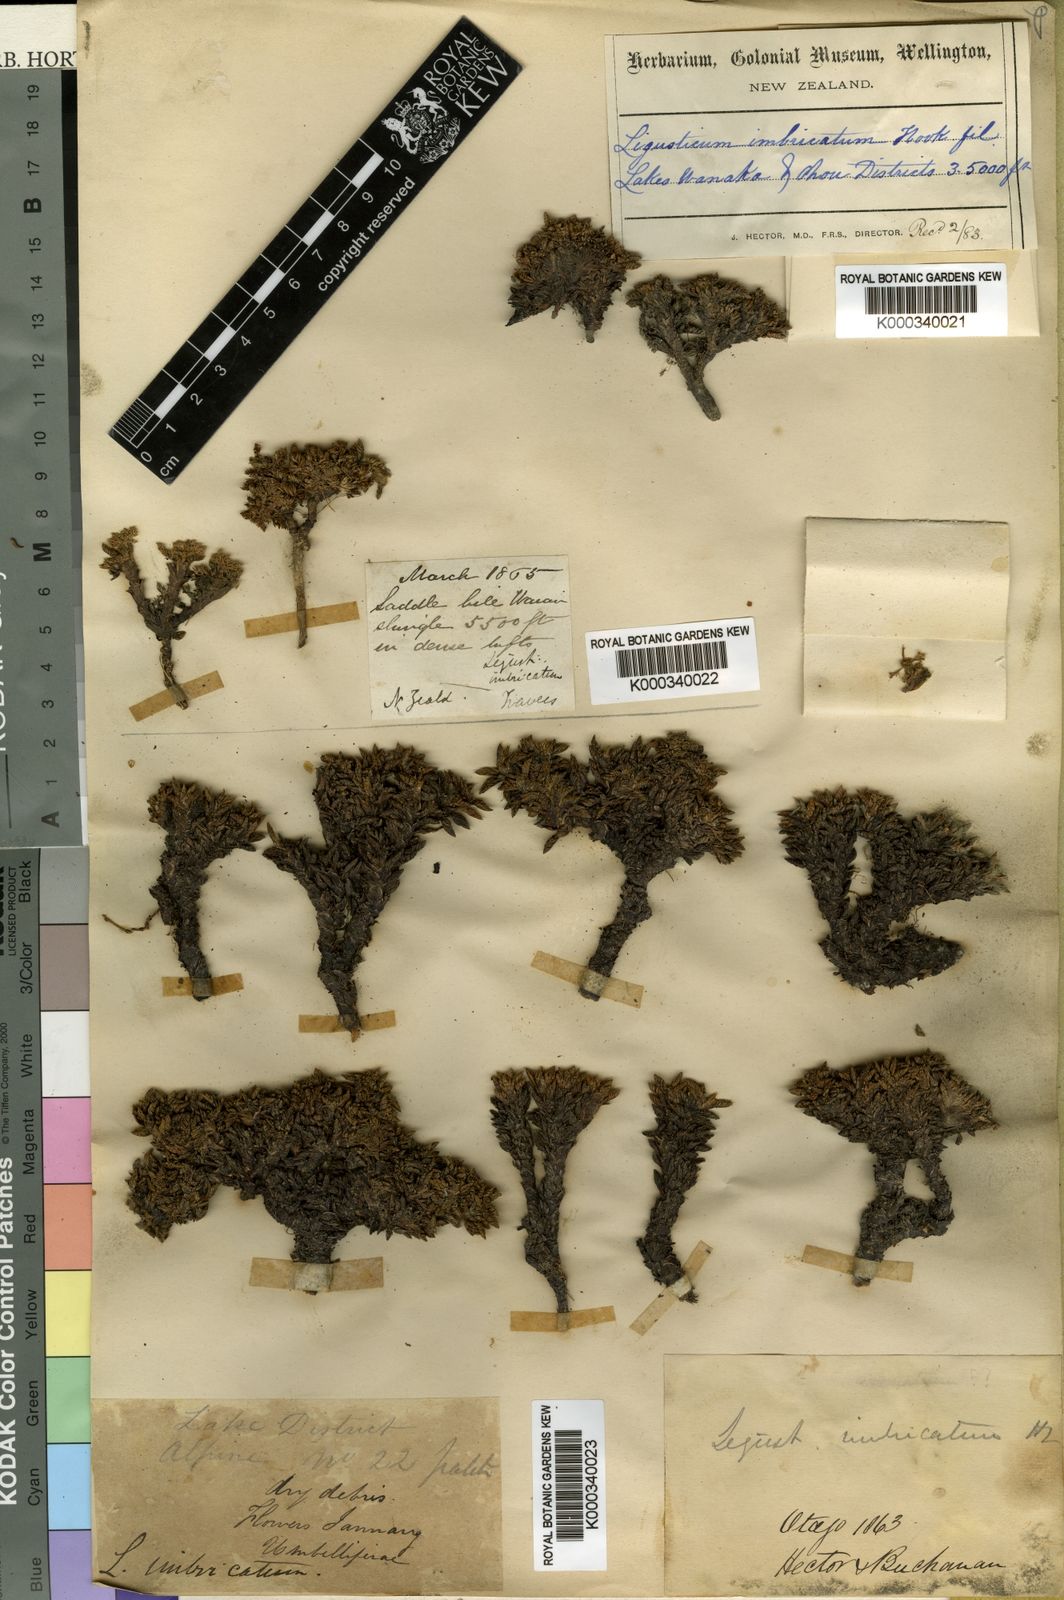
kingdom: Plantae
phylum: Tracheophyta
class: Magnoliopsida
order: Apiales
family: Apiaceae
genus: Anisotome
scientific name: Anisotome
